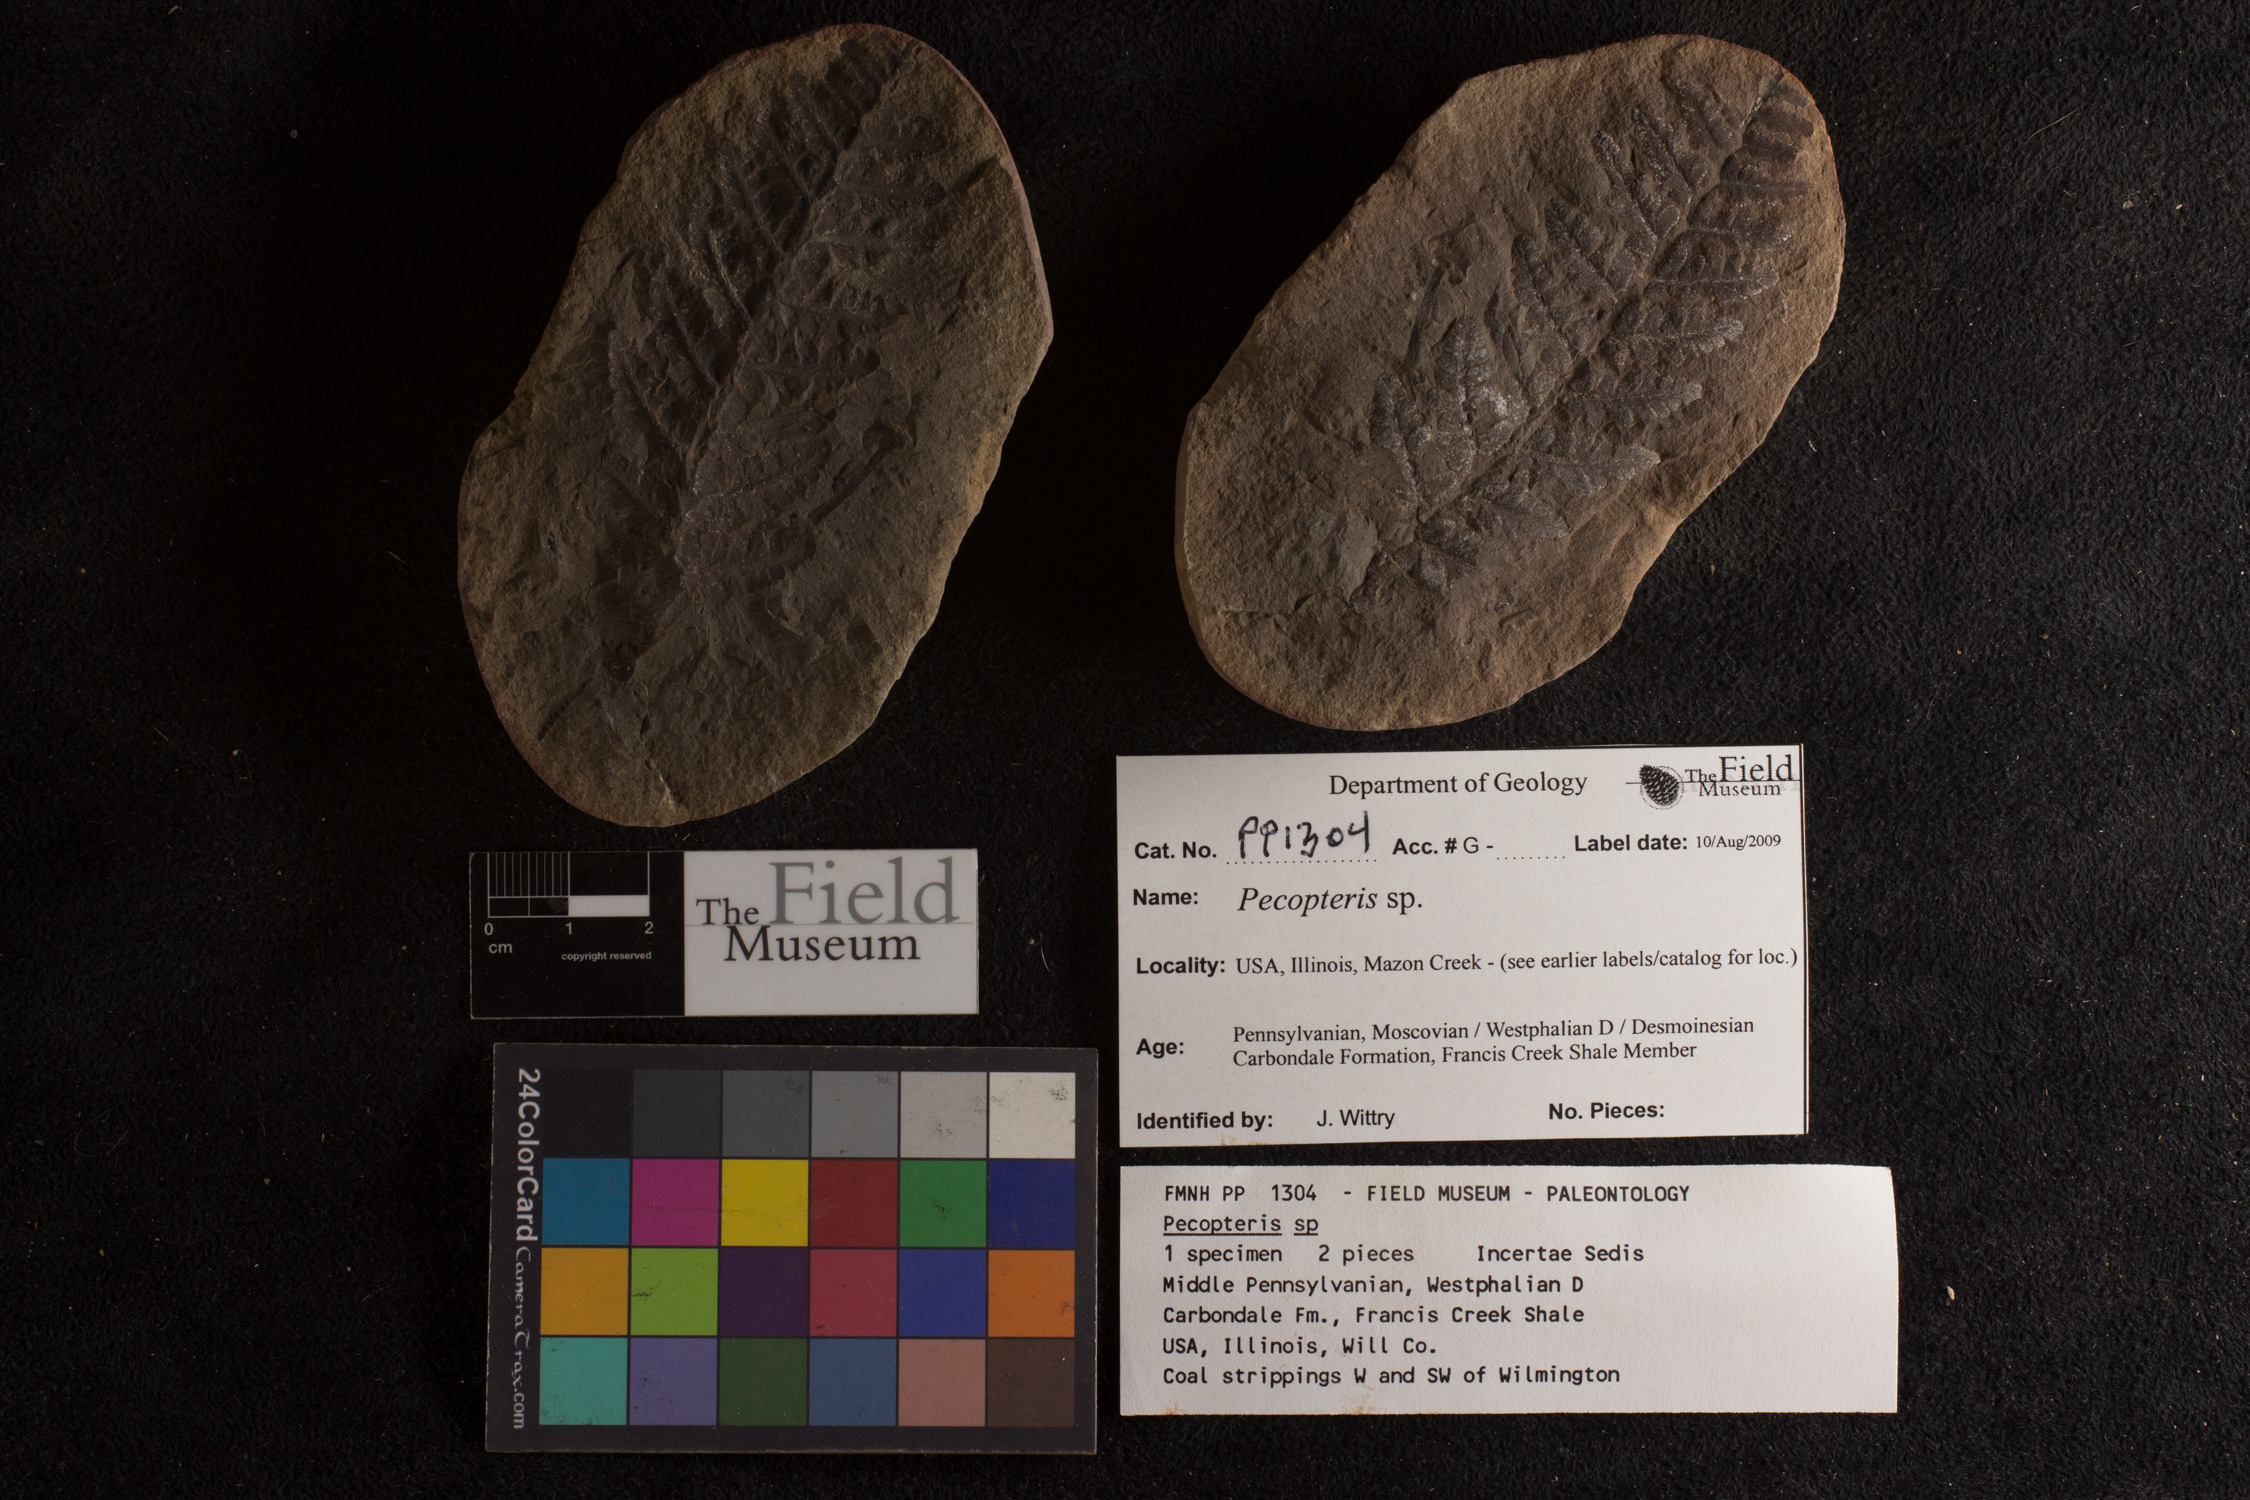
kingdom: Plantae
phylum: Tracheophyta
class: Polypodiopsida
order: Marattiales
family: Asterothecaceae
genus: Pecopteris
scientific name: Pecopteris
